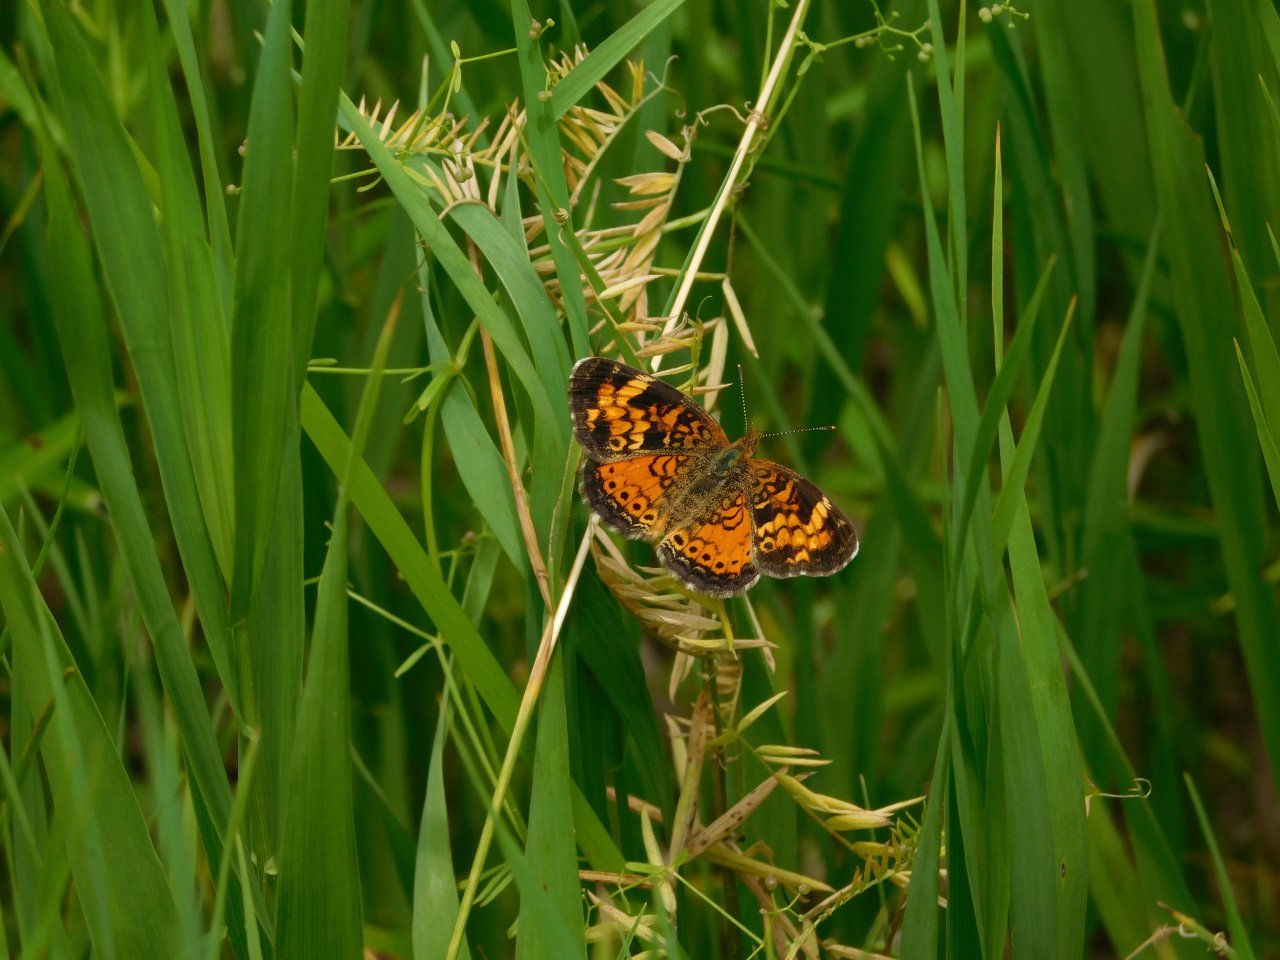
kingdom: Animalia
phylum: Arthropoda
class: Insecta
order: Lepidoptera
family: Nymphalidae
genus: Phyciodes
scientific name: Phyciodes tharos
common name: Northern Crescent
